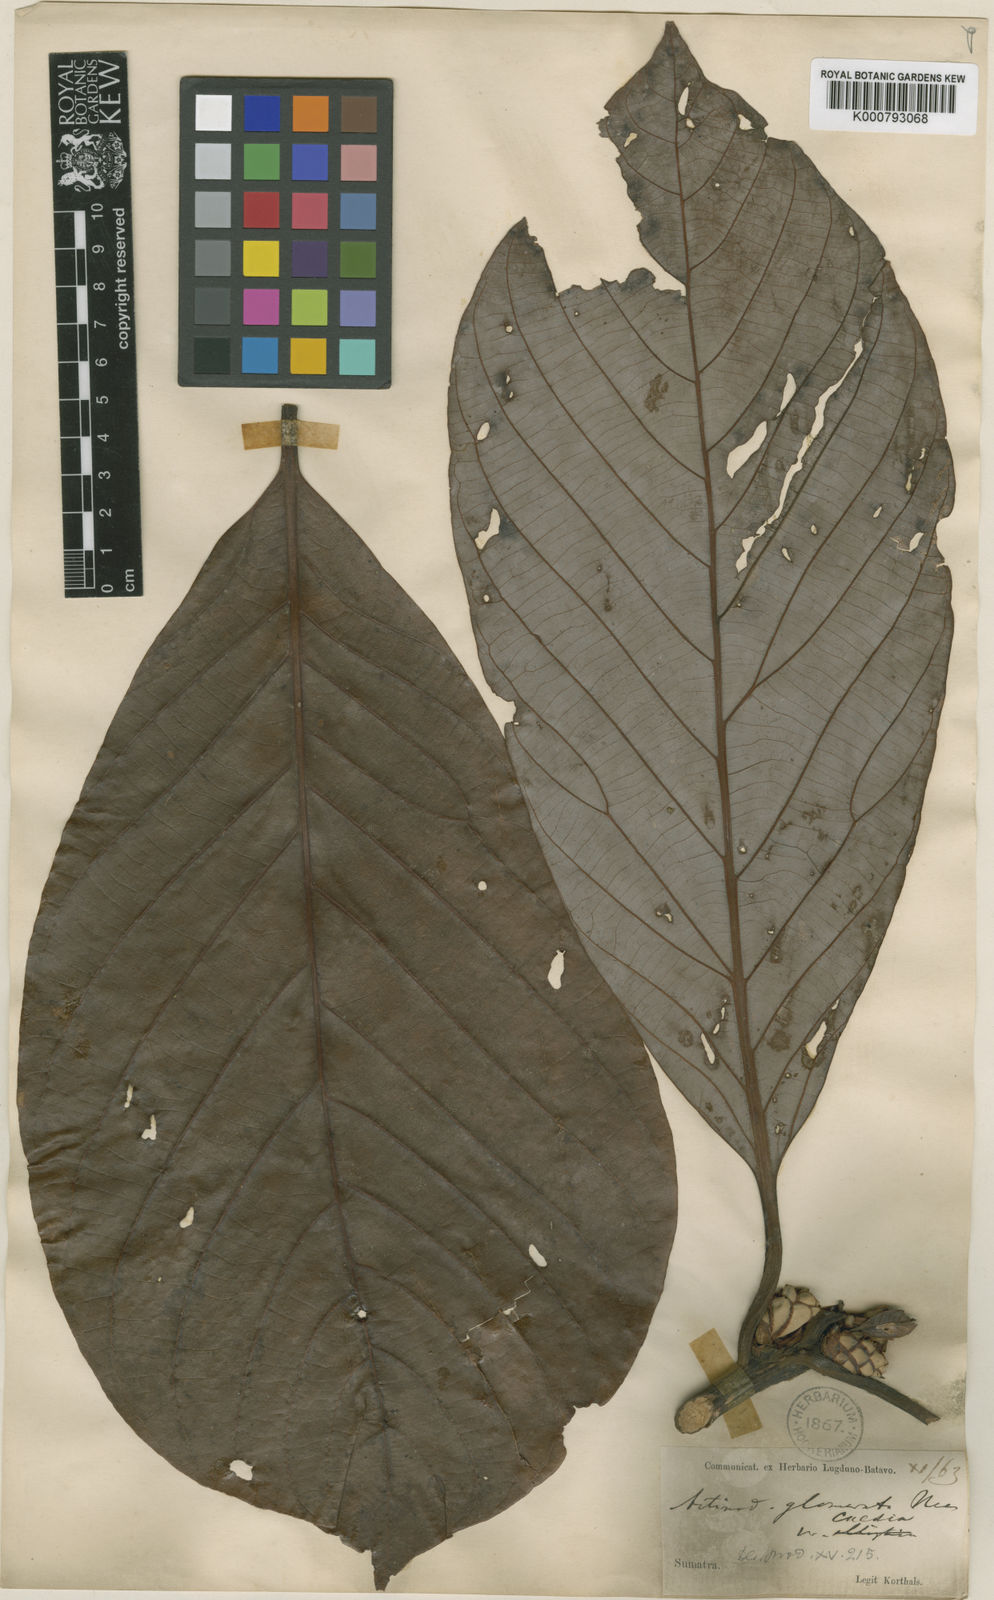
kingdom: Plantae
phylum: Tracheophyta
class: Magnoliopsida
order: Laurales
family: Lauraceae
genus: Actinodaphne
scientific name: Actinodaphne glomerata
